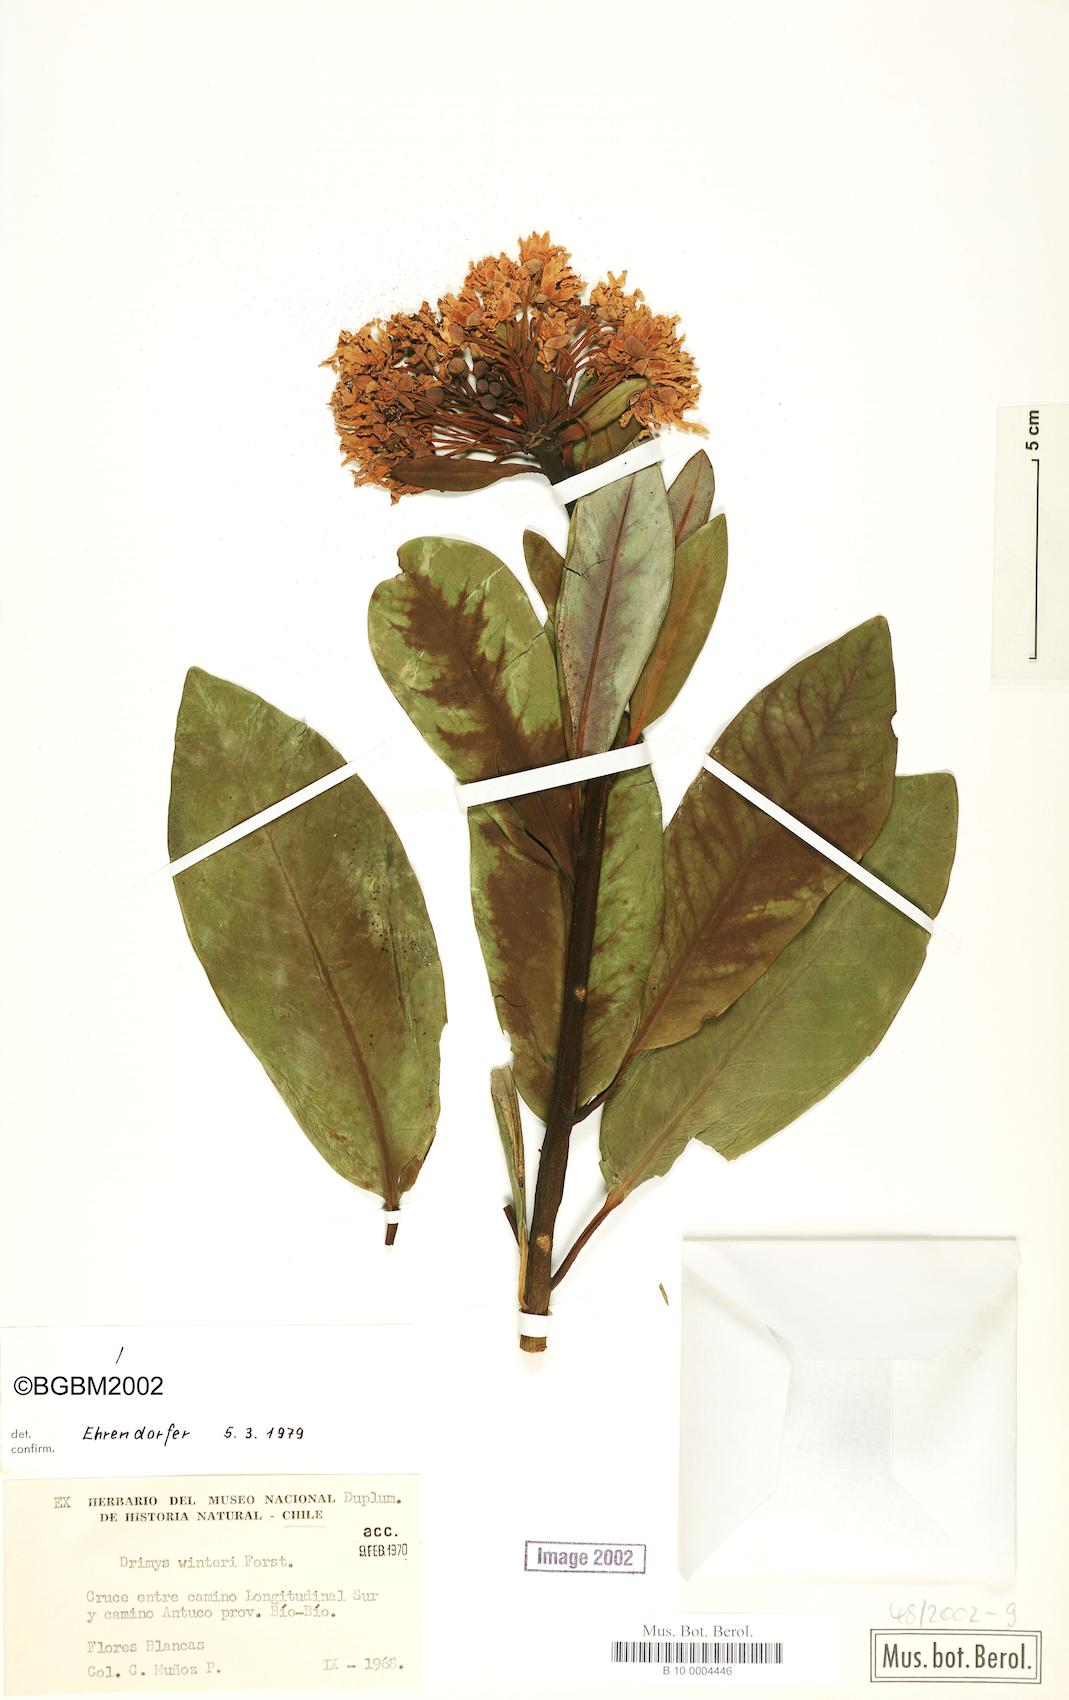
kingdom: Plantae
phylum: Tracheophyta
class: Magnoliopsida
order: Canellales
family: Winteraceae
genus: Drimys
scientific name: Drimys winteri
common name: Winter's-bark
